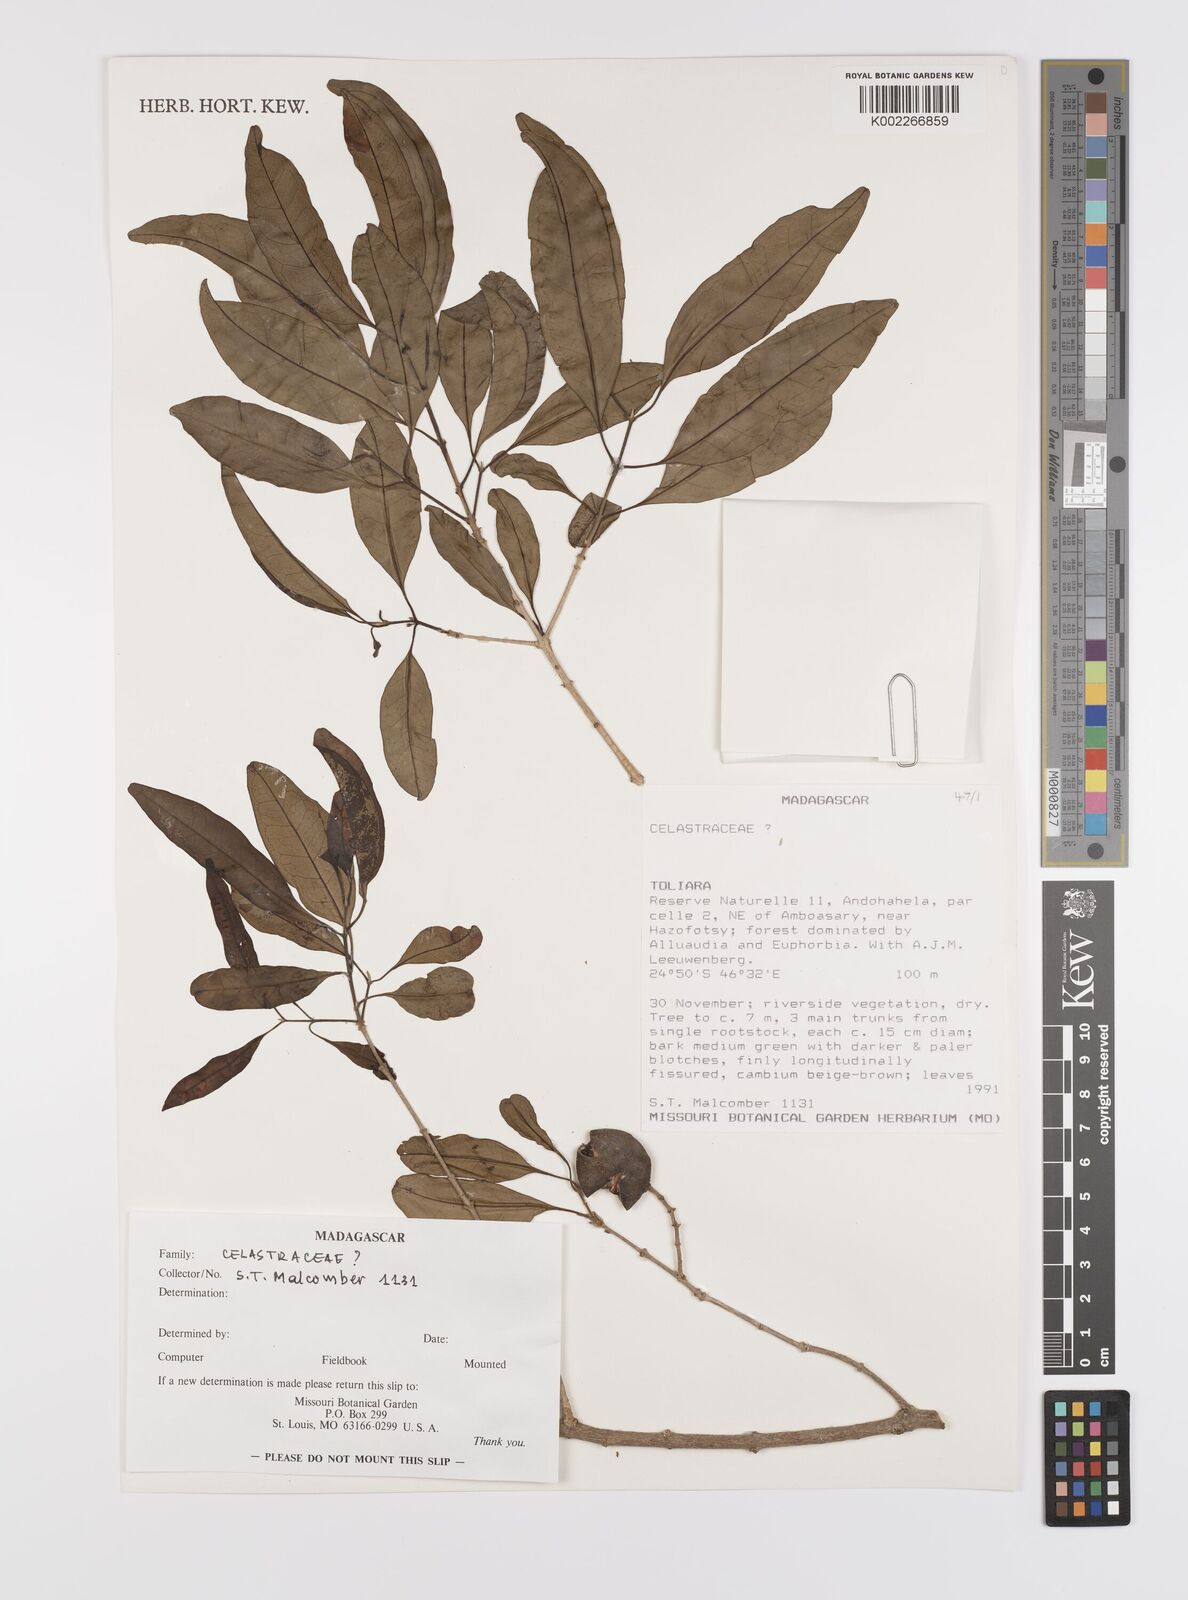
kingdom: Plantae
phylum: Tracheophyta
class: Magnoliopsida
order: Celastrales
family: Celastraceae
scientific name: Celastraceae
